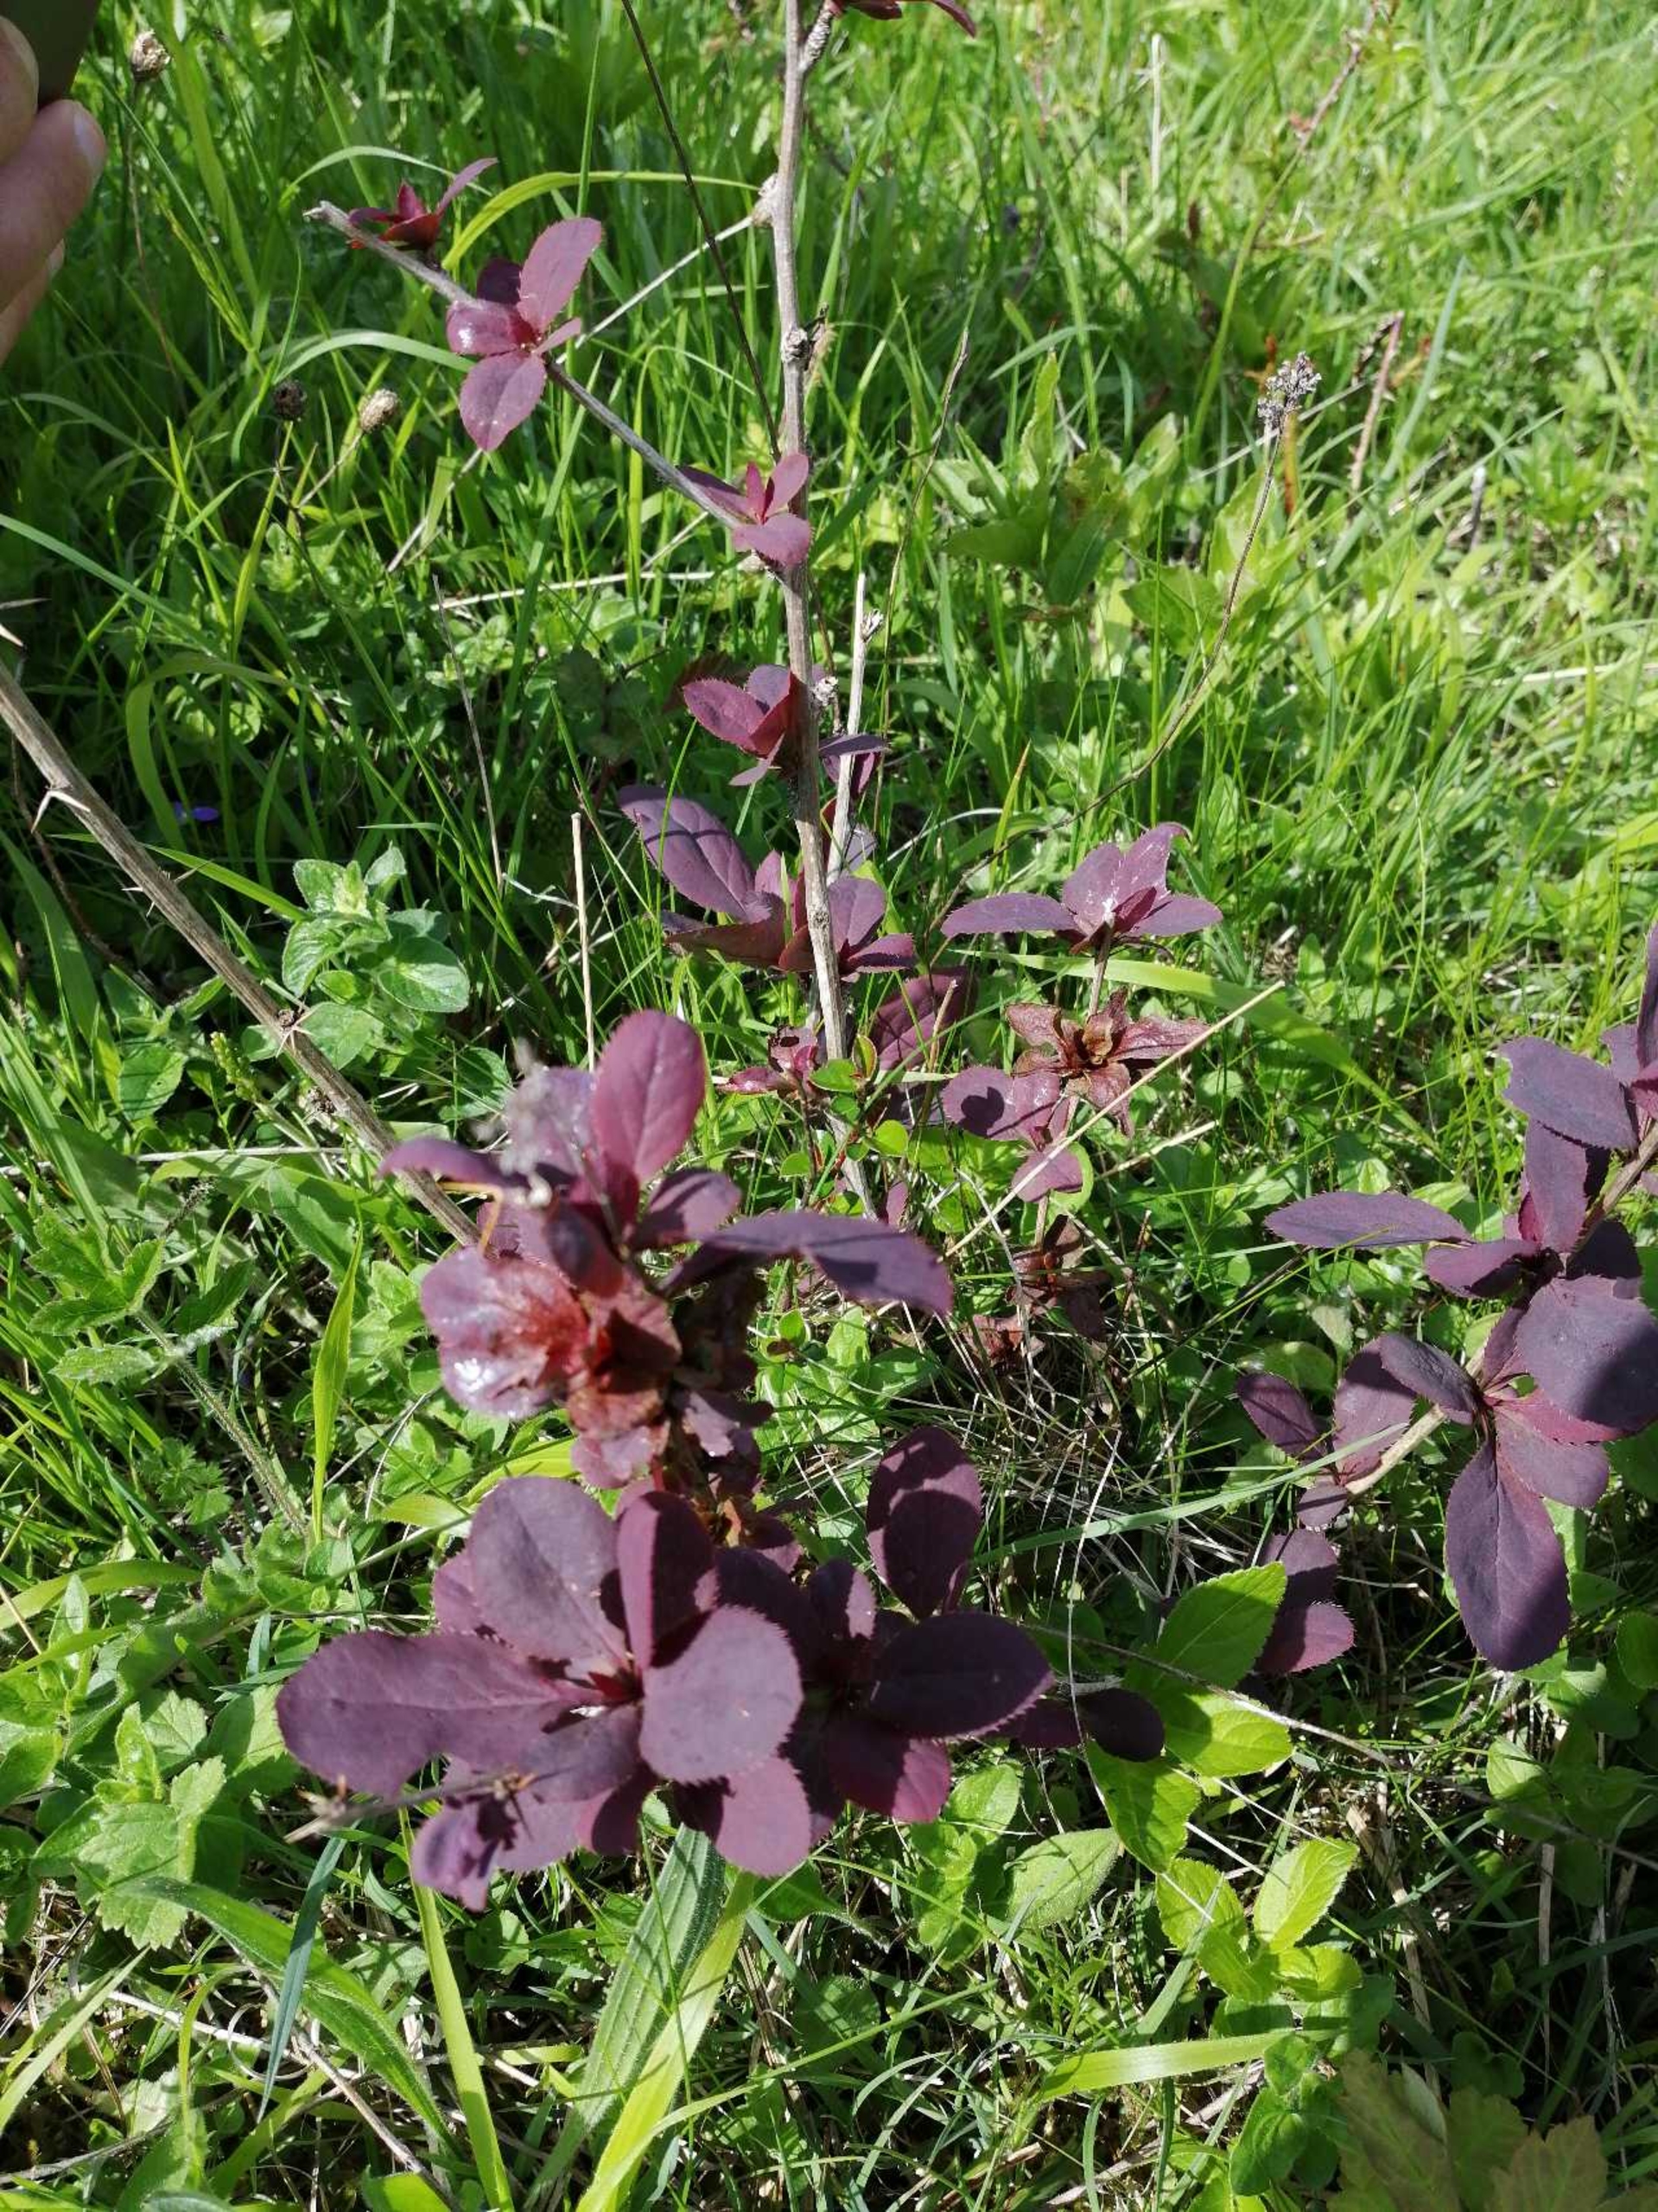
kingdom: Plantae
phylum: Tracheophyta
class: Magnoliopsida
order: Ranunculales
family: Berberidaceae
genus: Berberis
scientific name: Berberis vulgaris
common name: Almindelig berberis
